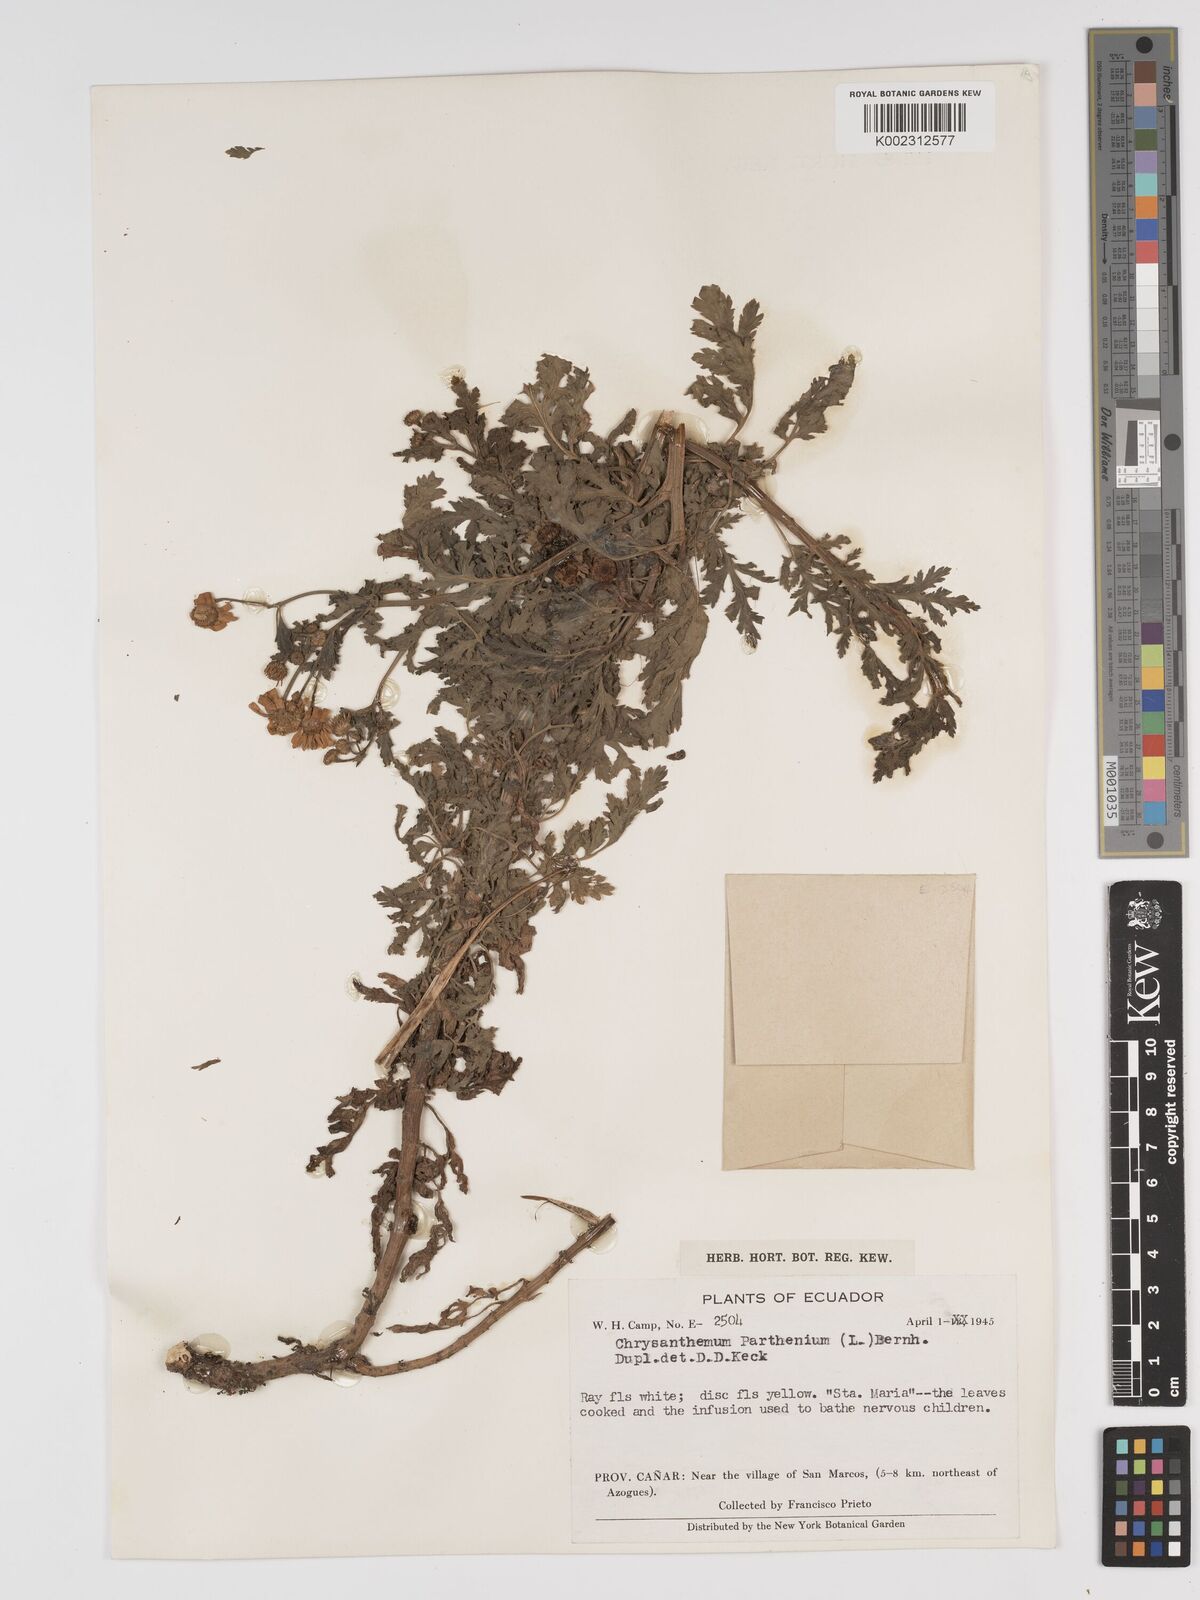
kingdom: Plantae
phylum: Tracheophyta
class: Magnoliopsida
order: Asterales
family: Asteraceae
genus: Tanacetum
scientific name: Tanacetum parthenium
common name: Feverfew
